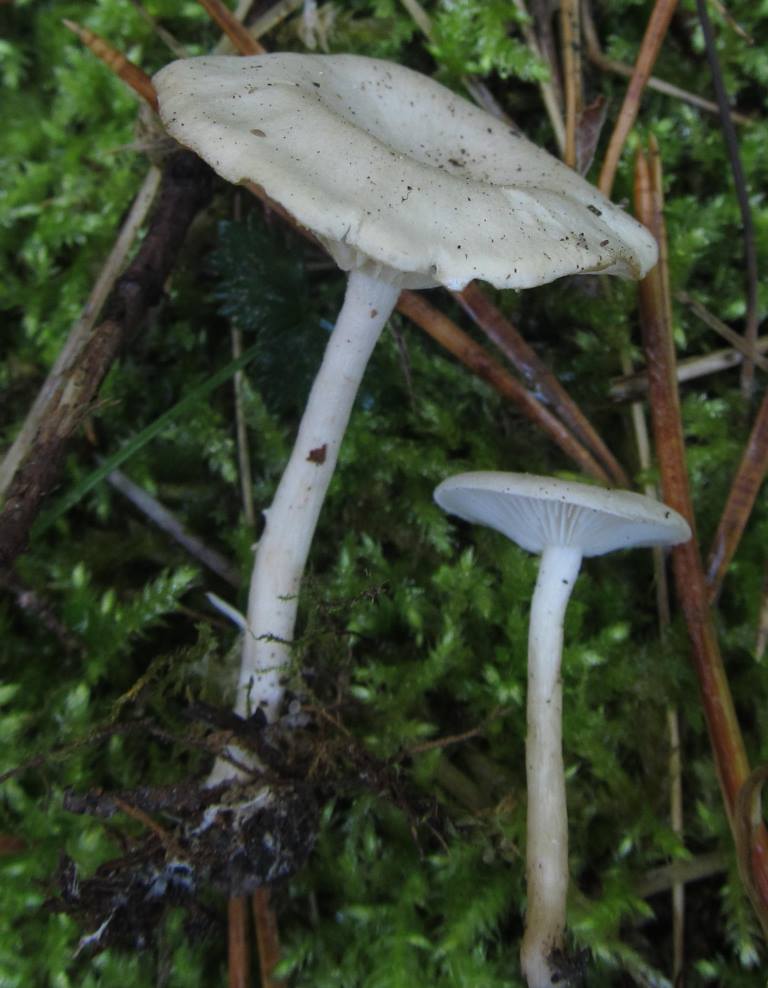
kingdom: Fungi
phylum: Basidiomycota
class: Agaricomycetes
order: Agaricales
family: Tricholomataceae
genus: Clitocybe
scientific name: Clitocybe
